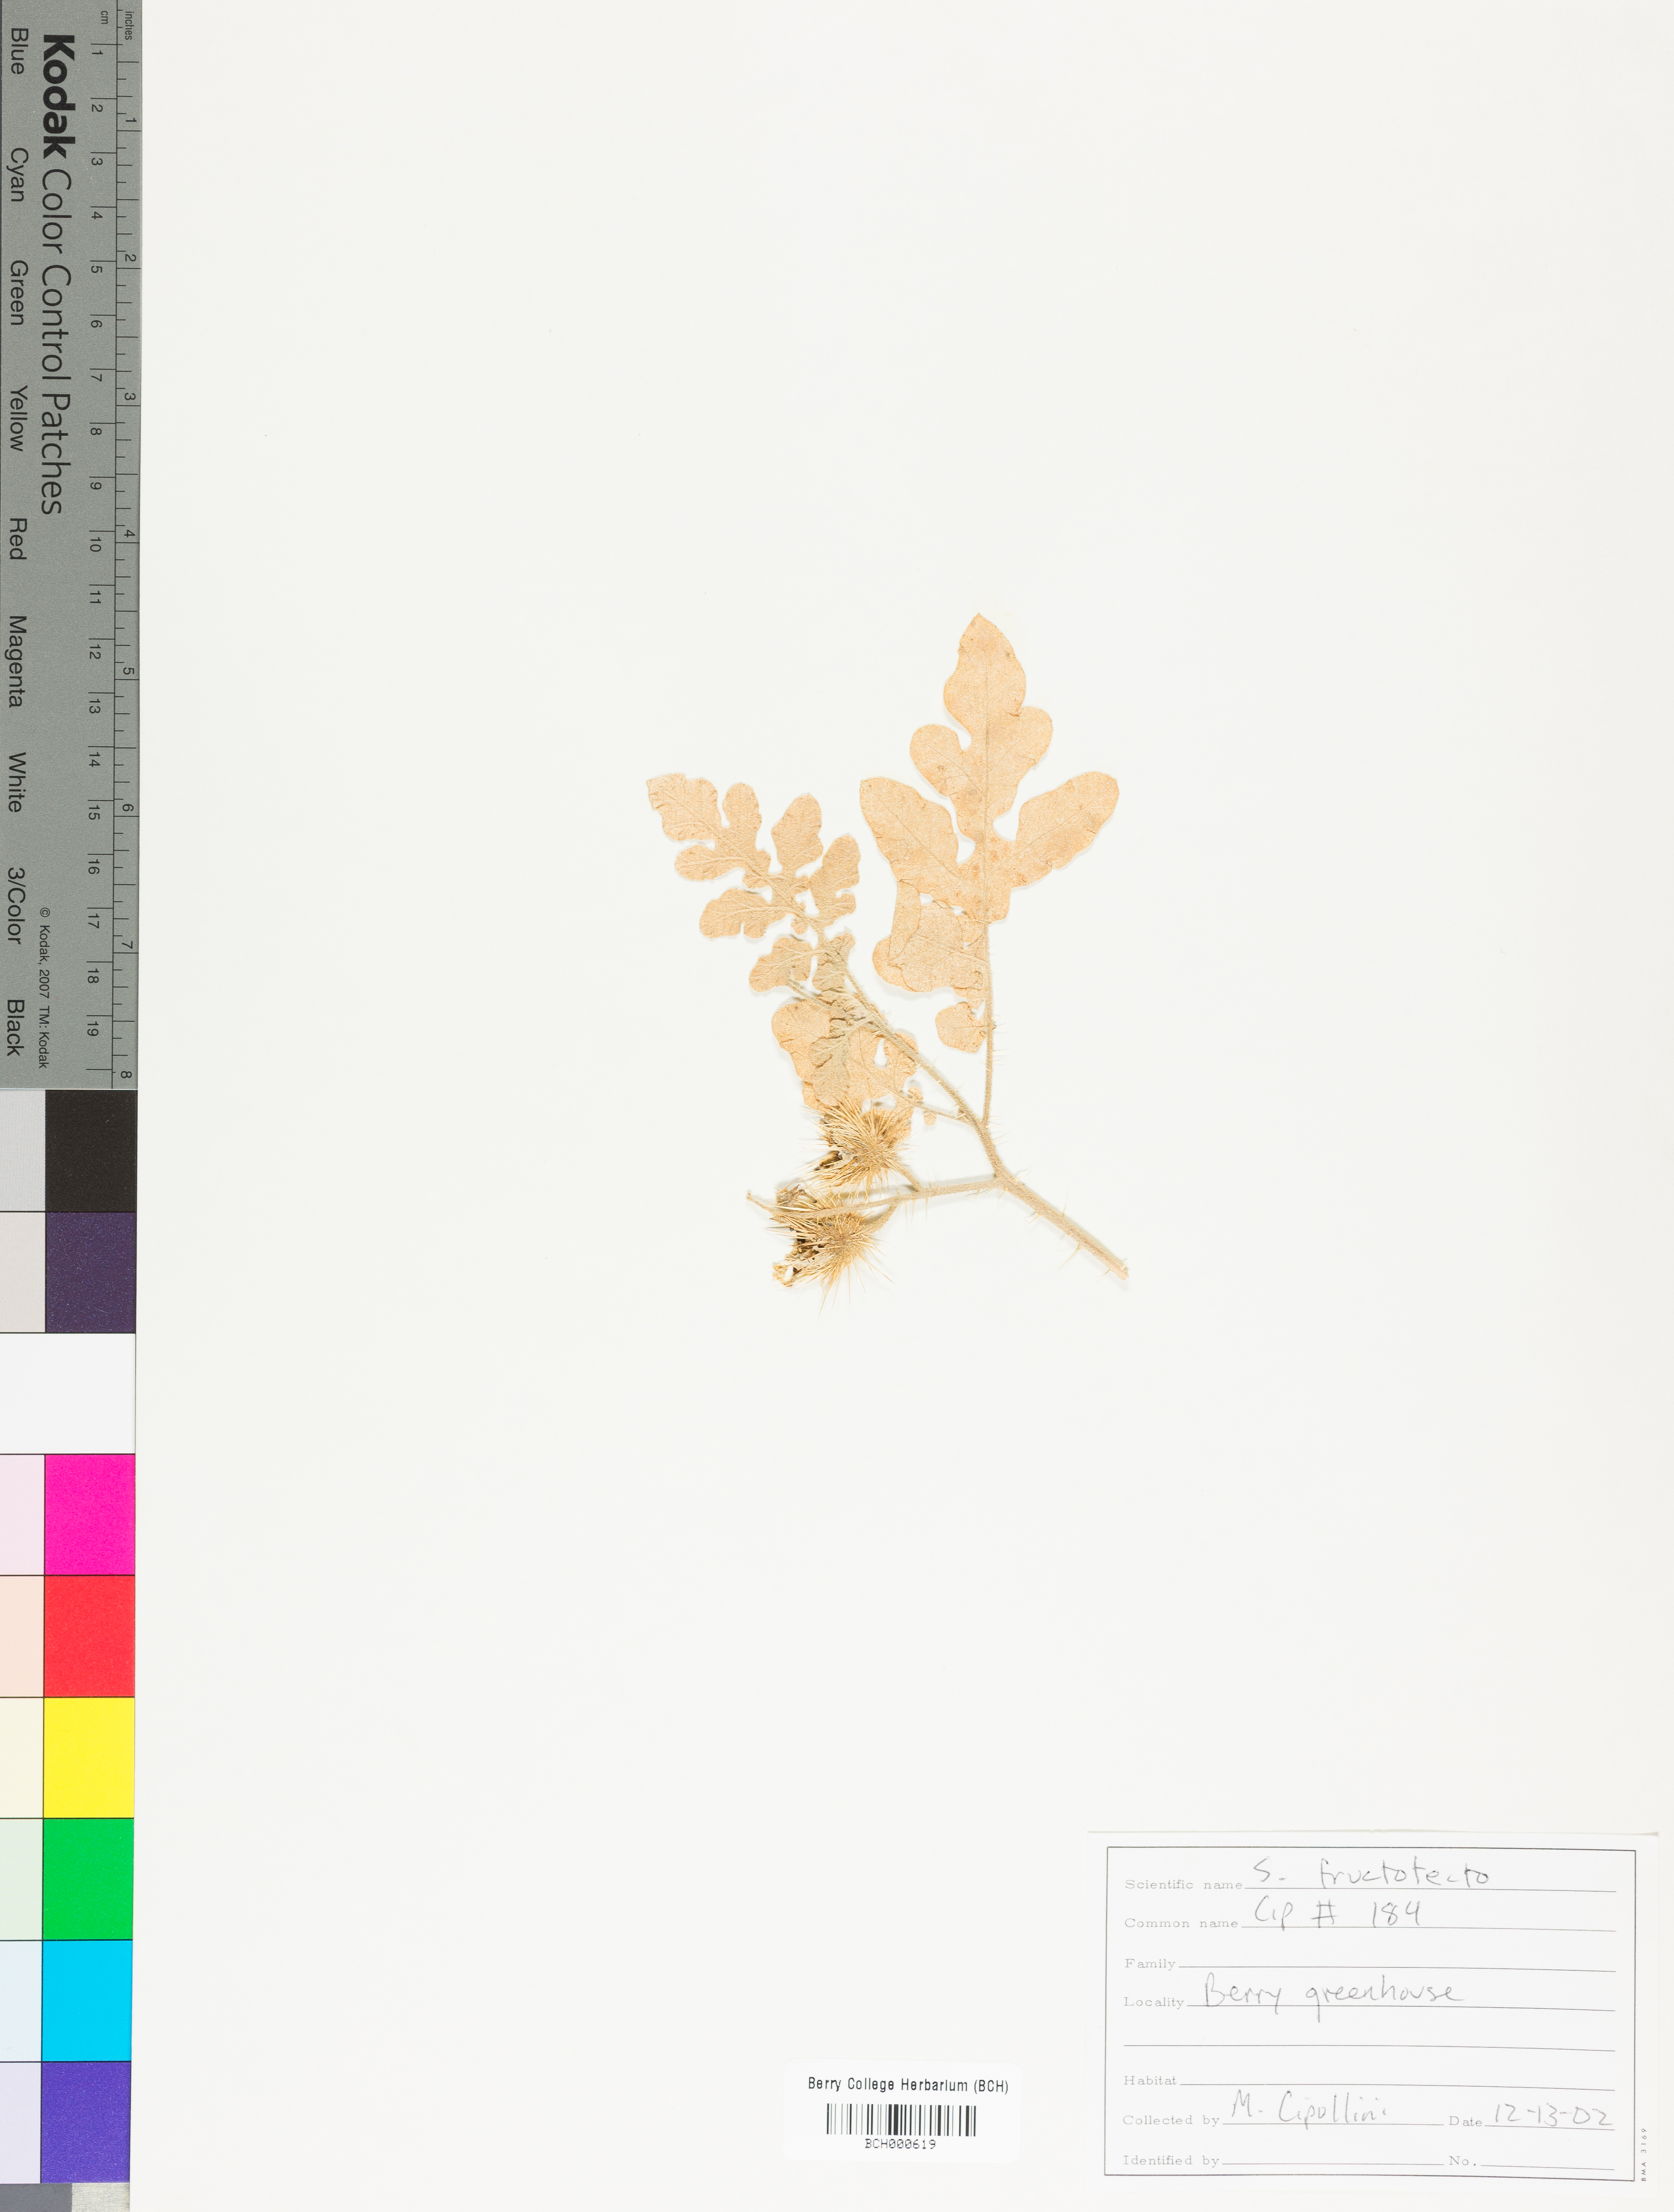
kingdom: Plantae
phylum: Tracheophyta
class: Magnoliopsida
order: Solanales
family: Solanaceae
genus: Solanum
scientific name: Solanum fructo-tecto
